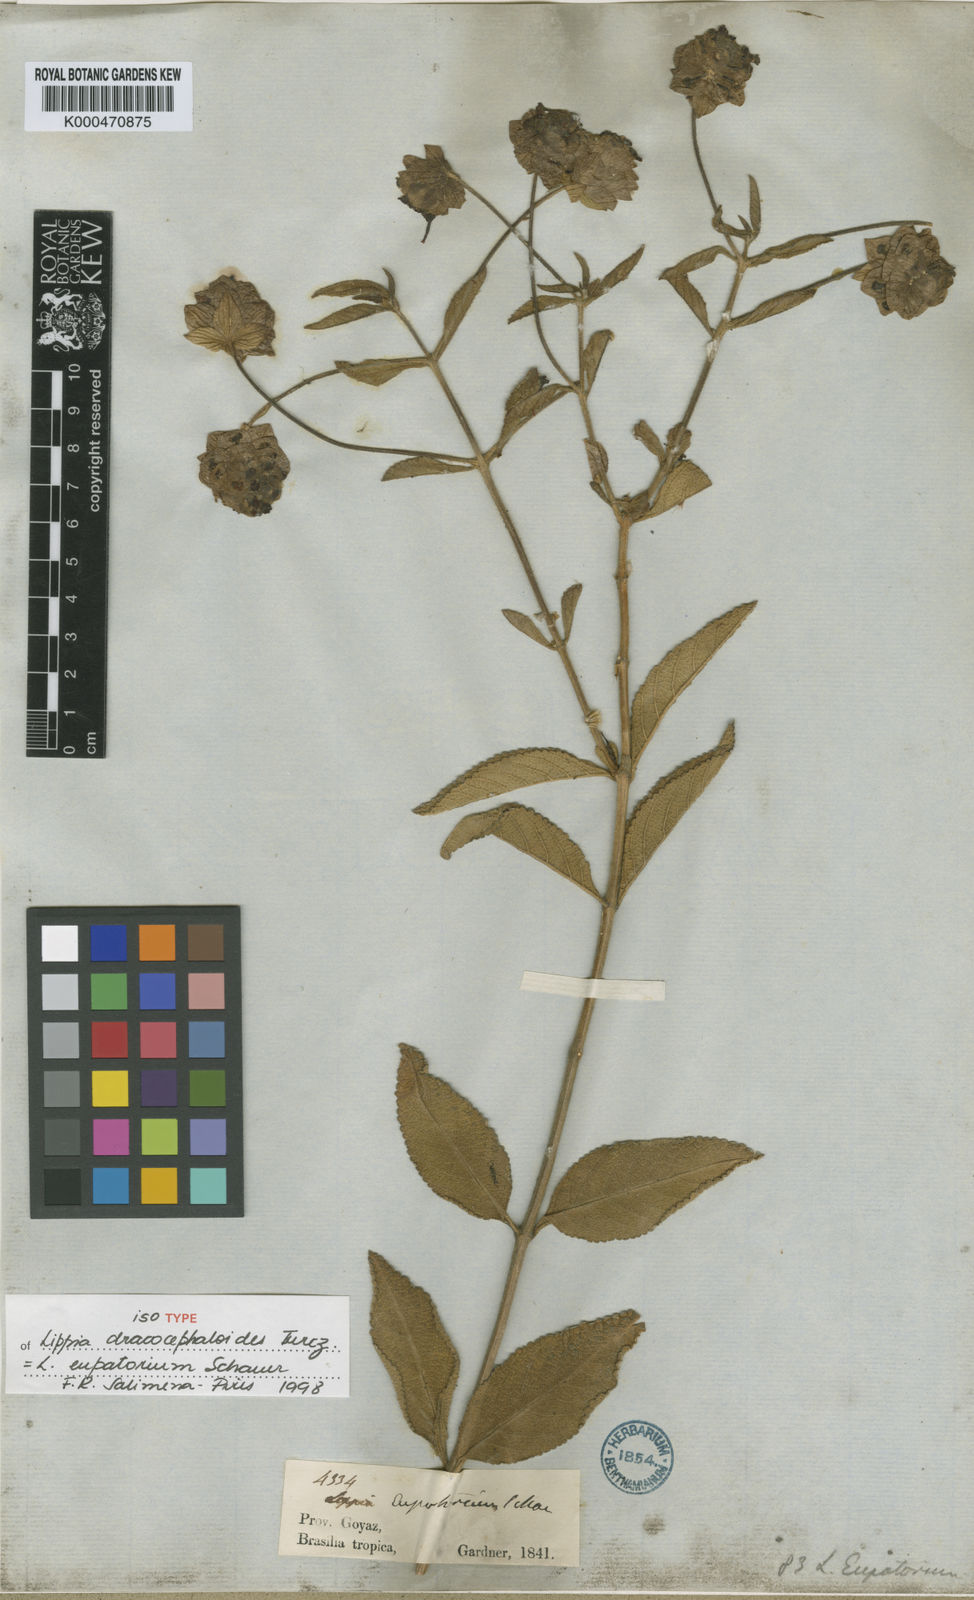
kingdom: Plantae
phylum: Tracheophyta
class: Magnoliopsida
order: Lamiales
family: Verbenaceae
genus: Lippia
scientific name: Lippia eupatorium
